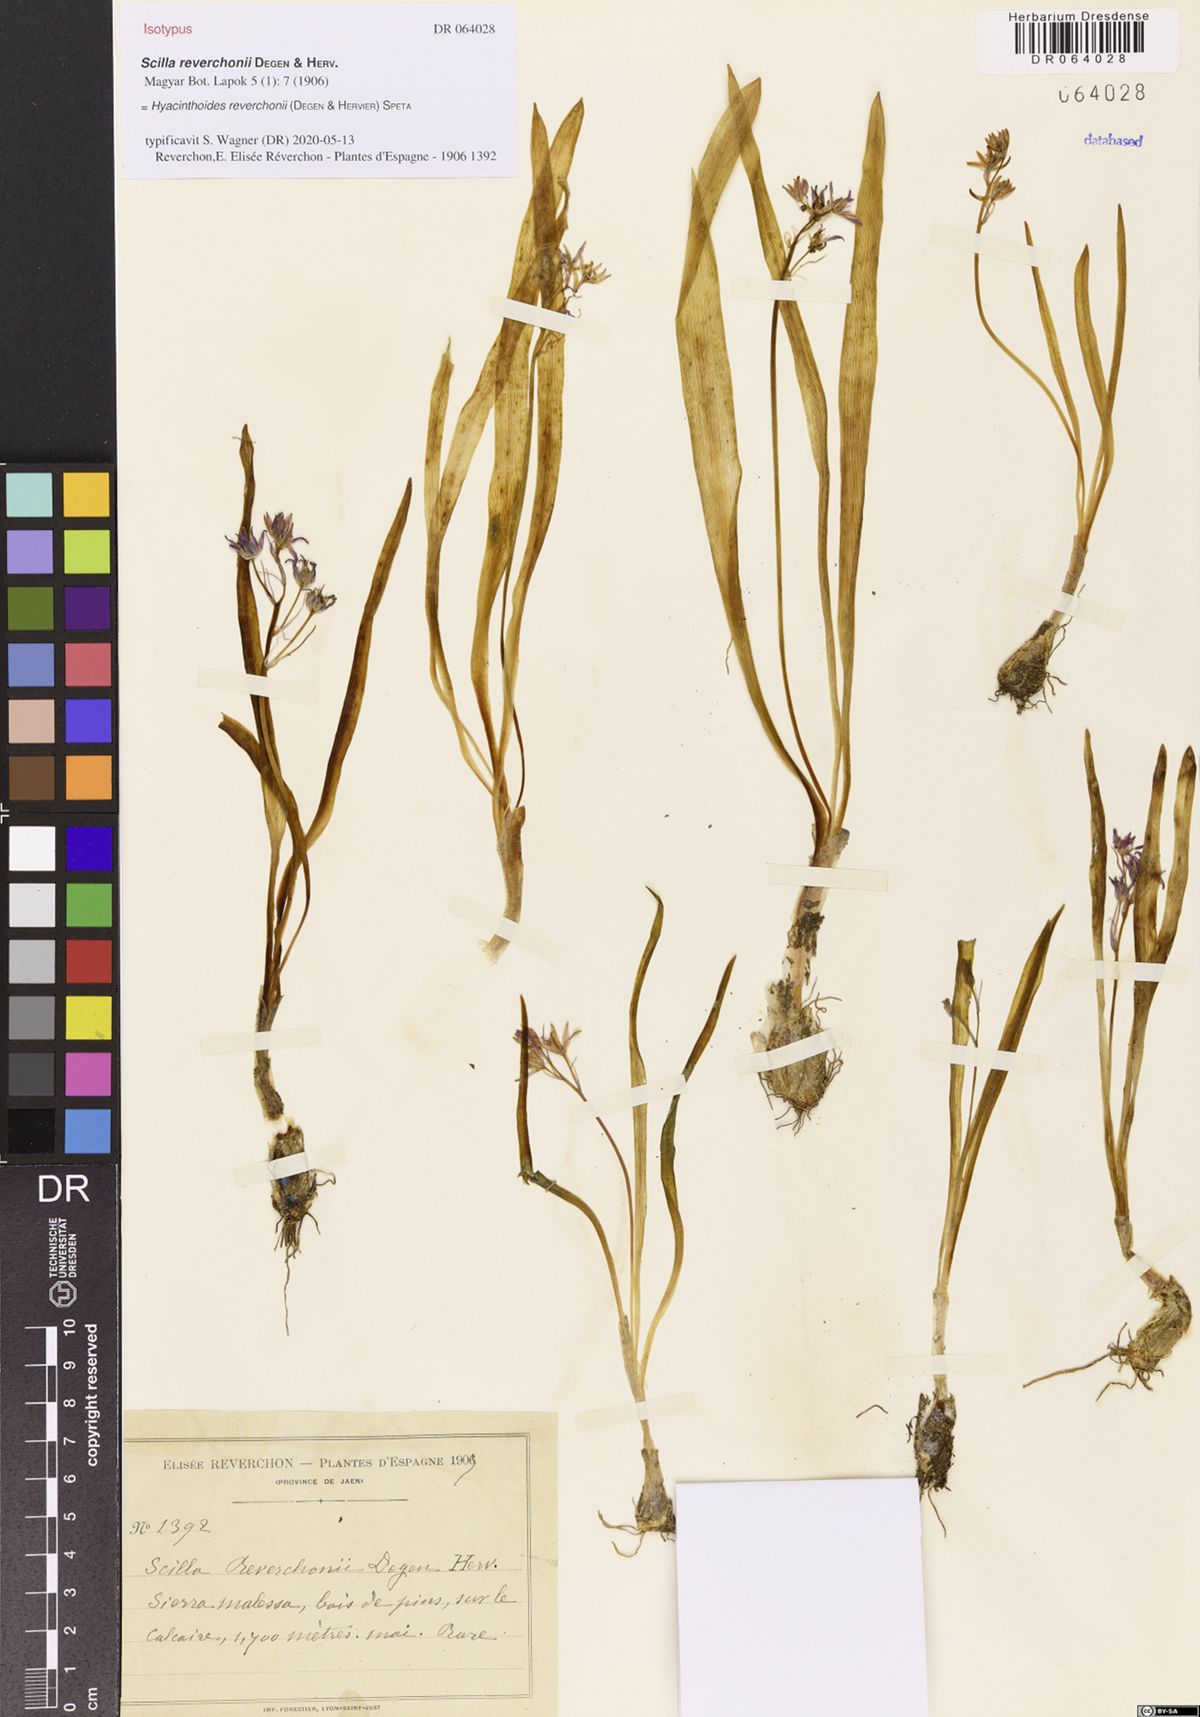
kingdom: Plantae
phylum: Tracheophyta
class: Liliopsida
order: Asparagales
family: Asparagaceae
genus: Hyacinthoides
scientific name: Hyacinthoides reverchonii
